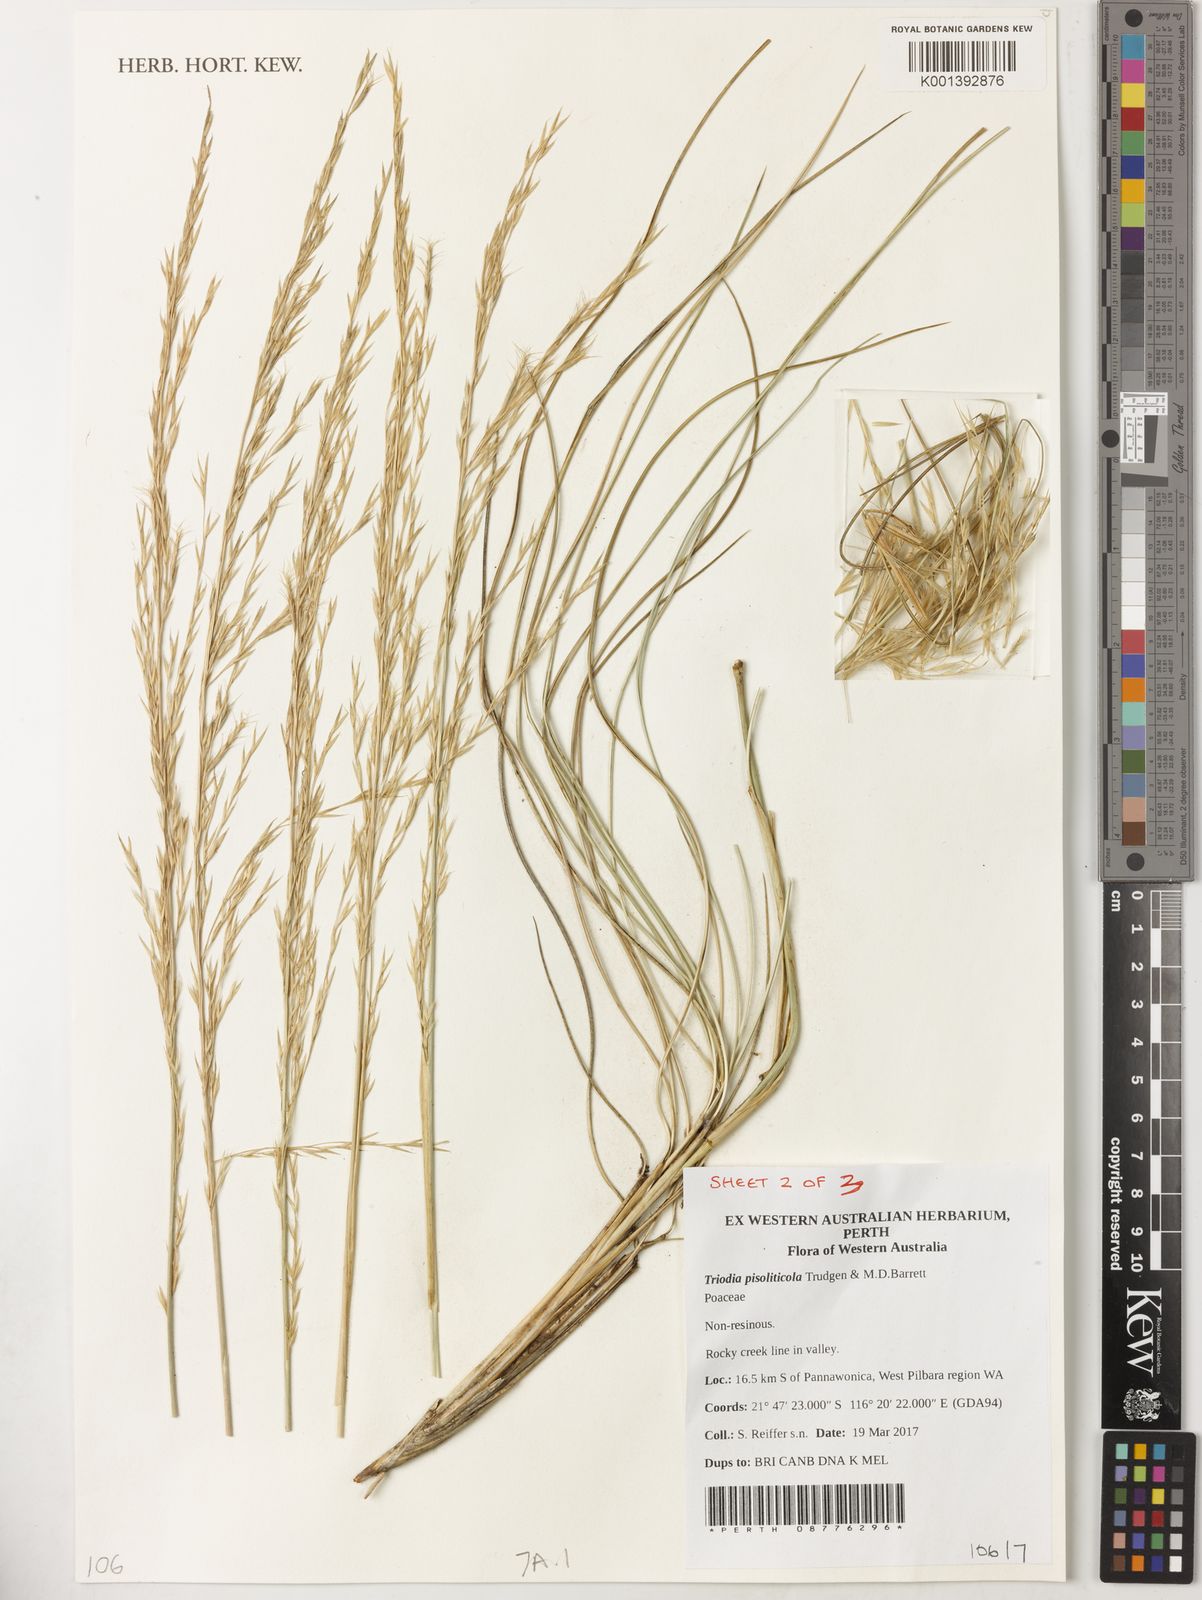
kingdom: Plantae
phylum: Tracheophyta
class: Liliopsida
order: Poales
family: Poaceae
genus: Triodia
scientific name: Triodia pisoliticola
